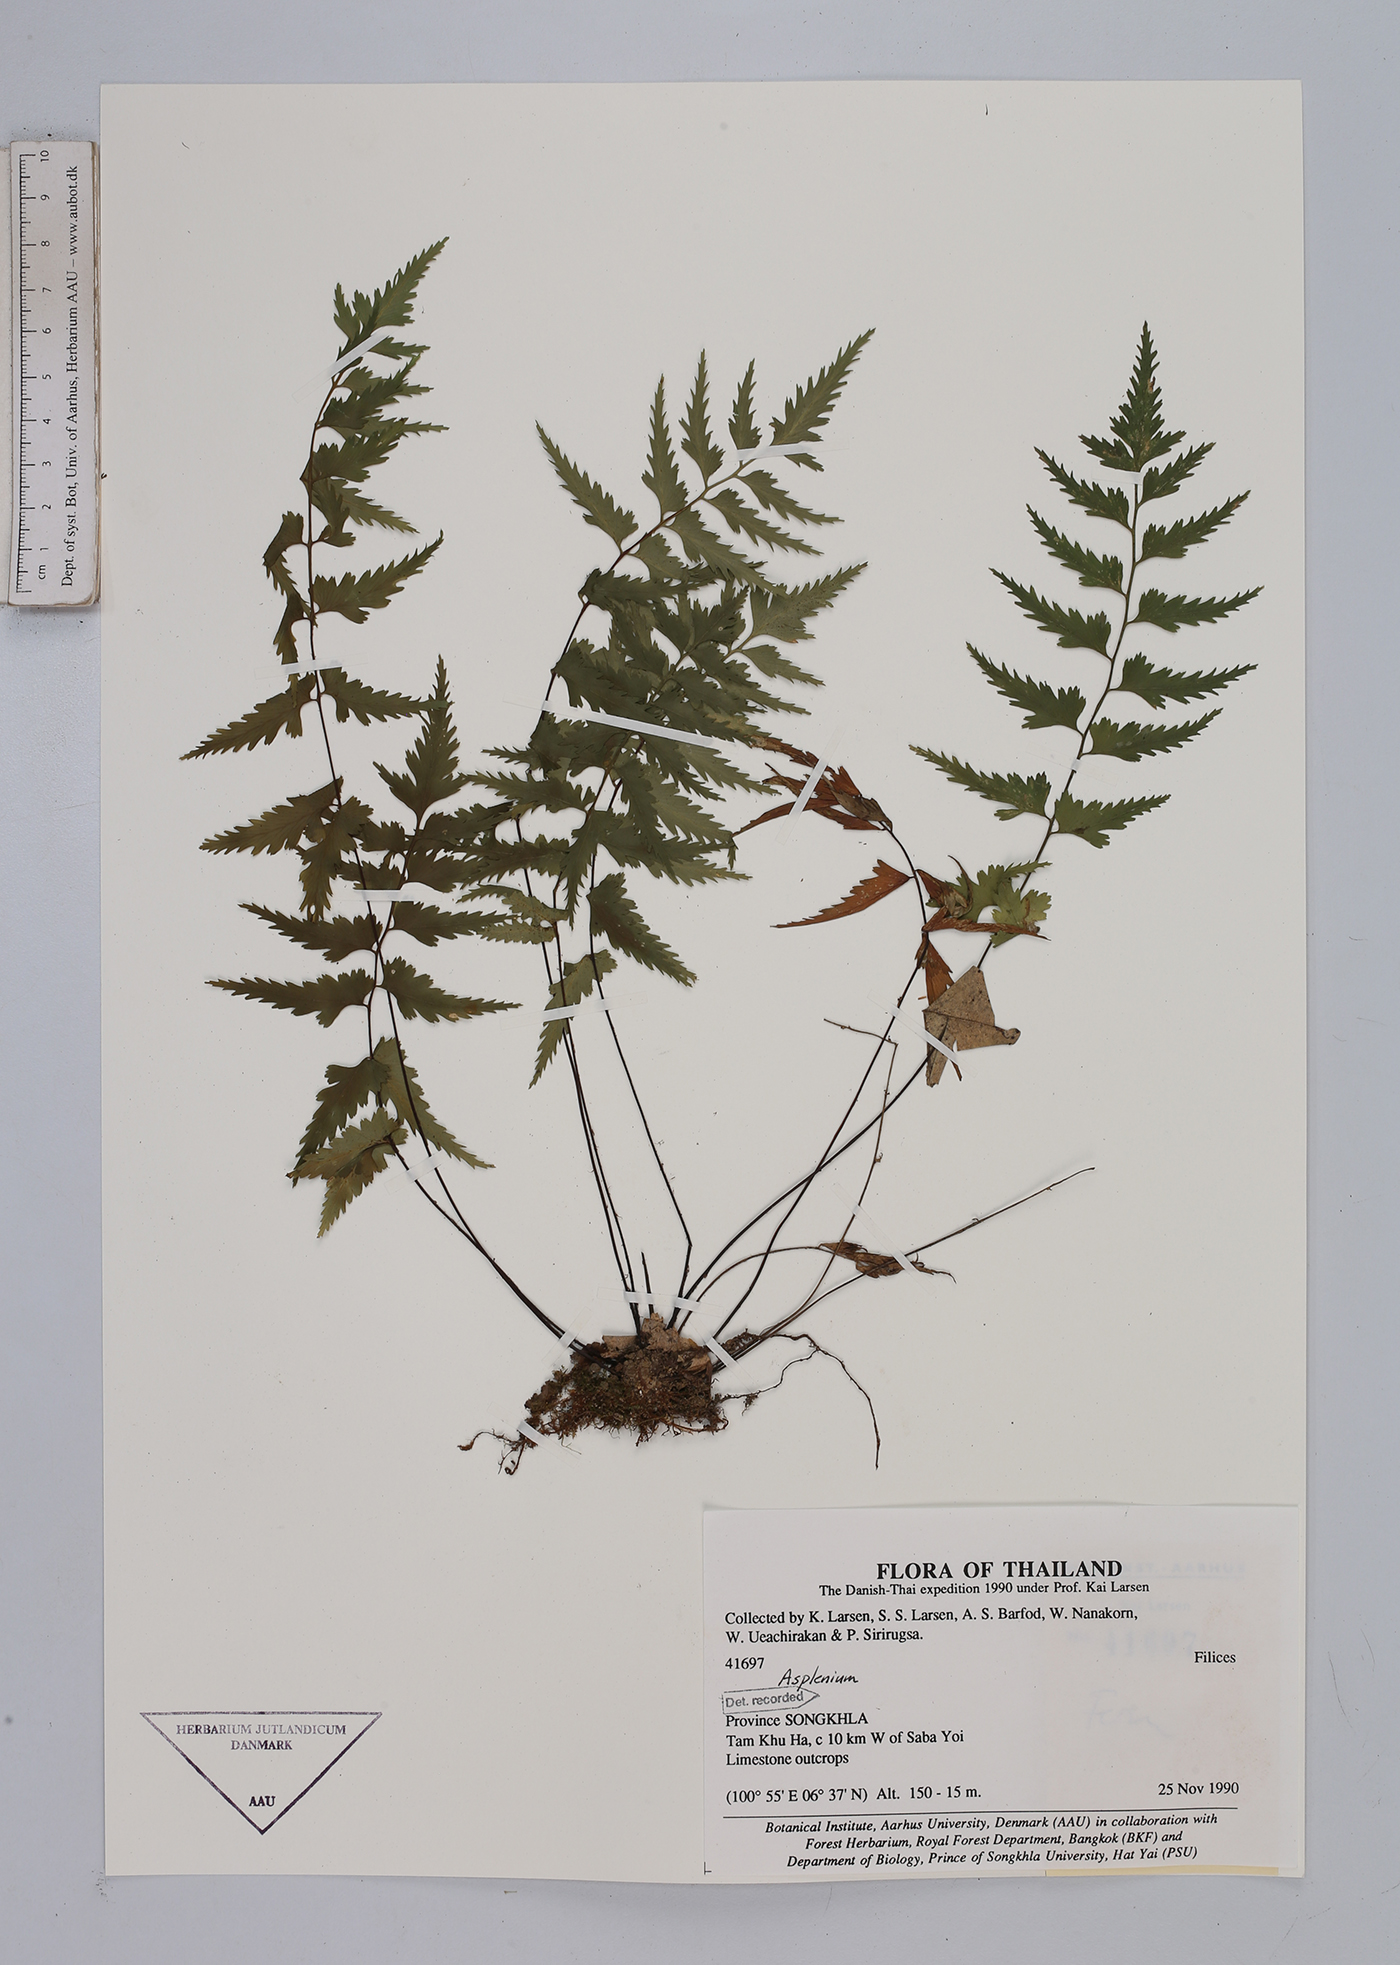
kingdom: Plantae
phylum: Tracheophyta
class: Polypodiopsida
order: Polypodiales
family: Aspleniaceae
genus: Asplenium
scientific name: Asplenium
